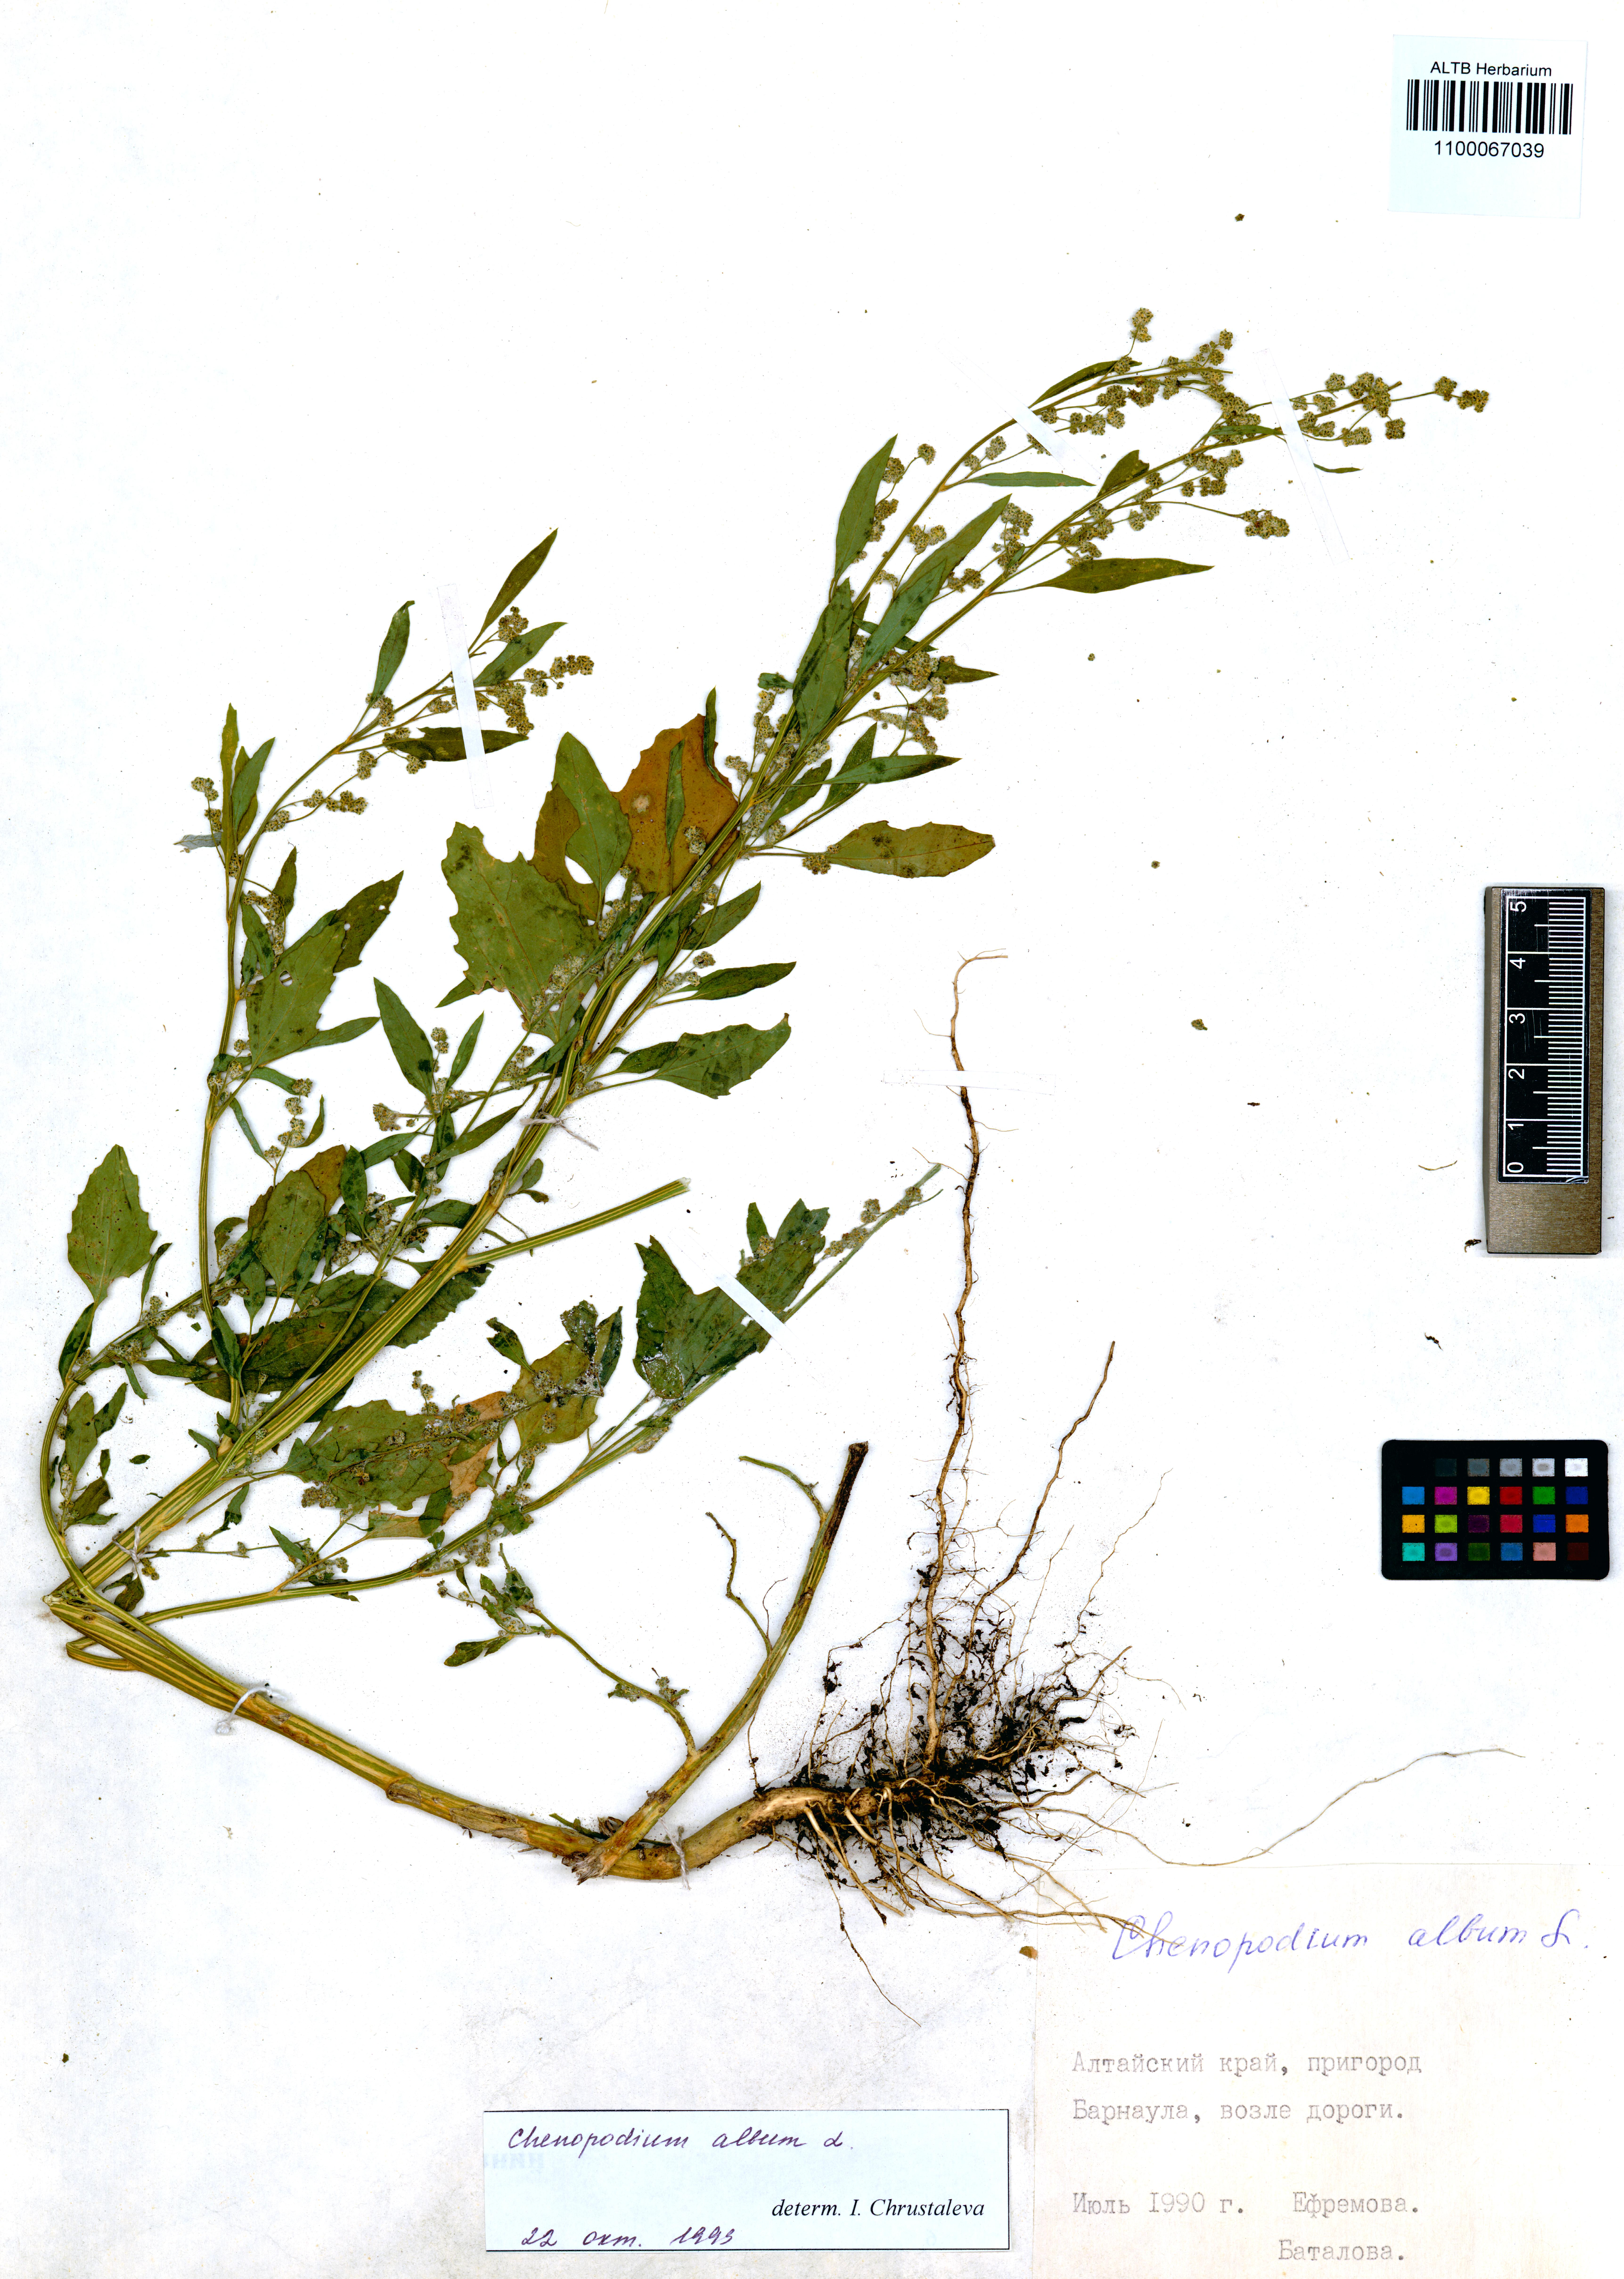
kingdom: Plantae
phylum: Tracheophyta
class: Magnoliopsida
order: Caryophyllales
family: Amaranthaceae
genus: Chenopodium
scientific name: Chenopodium album
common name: Fat-hen
